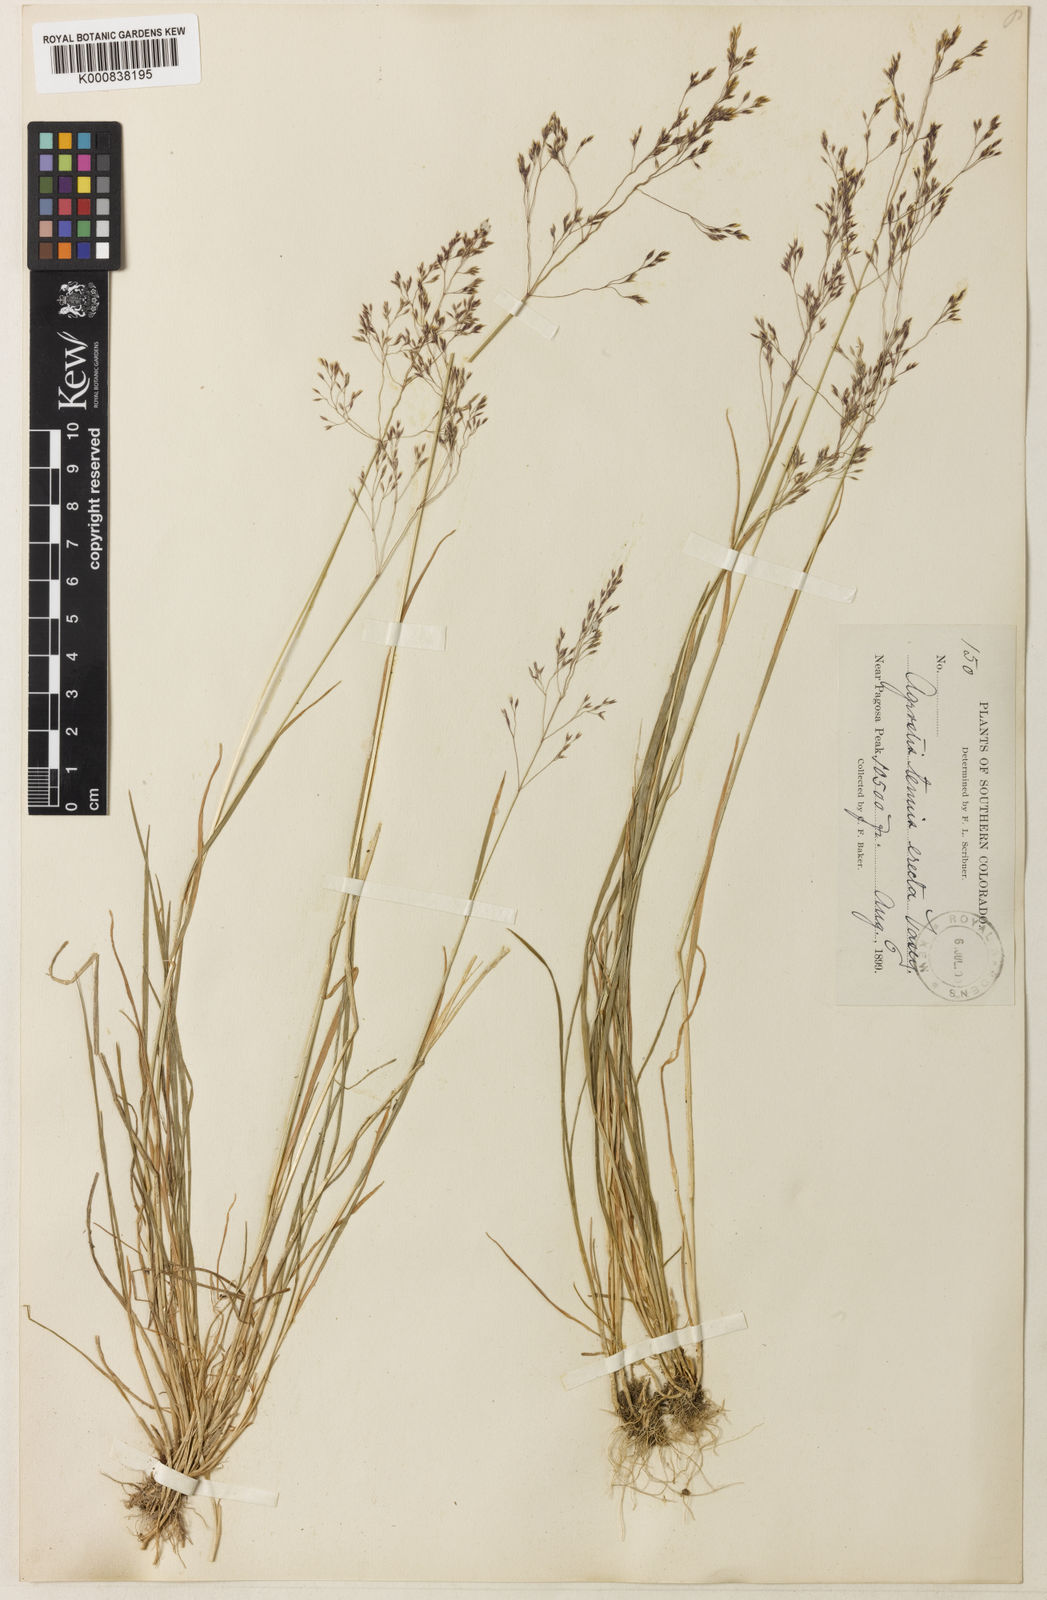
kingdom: Plantae
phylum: Tracheophyta
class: Liliopsida
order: Poales
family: Poaceae
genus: Agrostis
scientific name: Agrostis mertensii
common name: Northern bent
